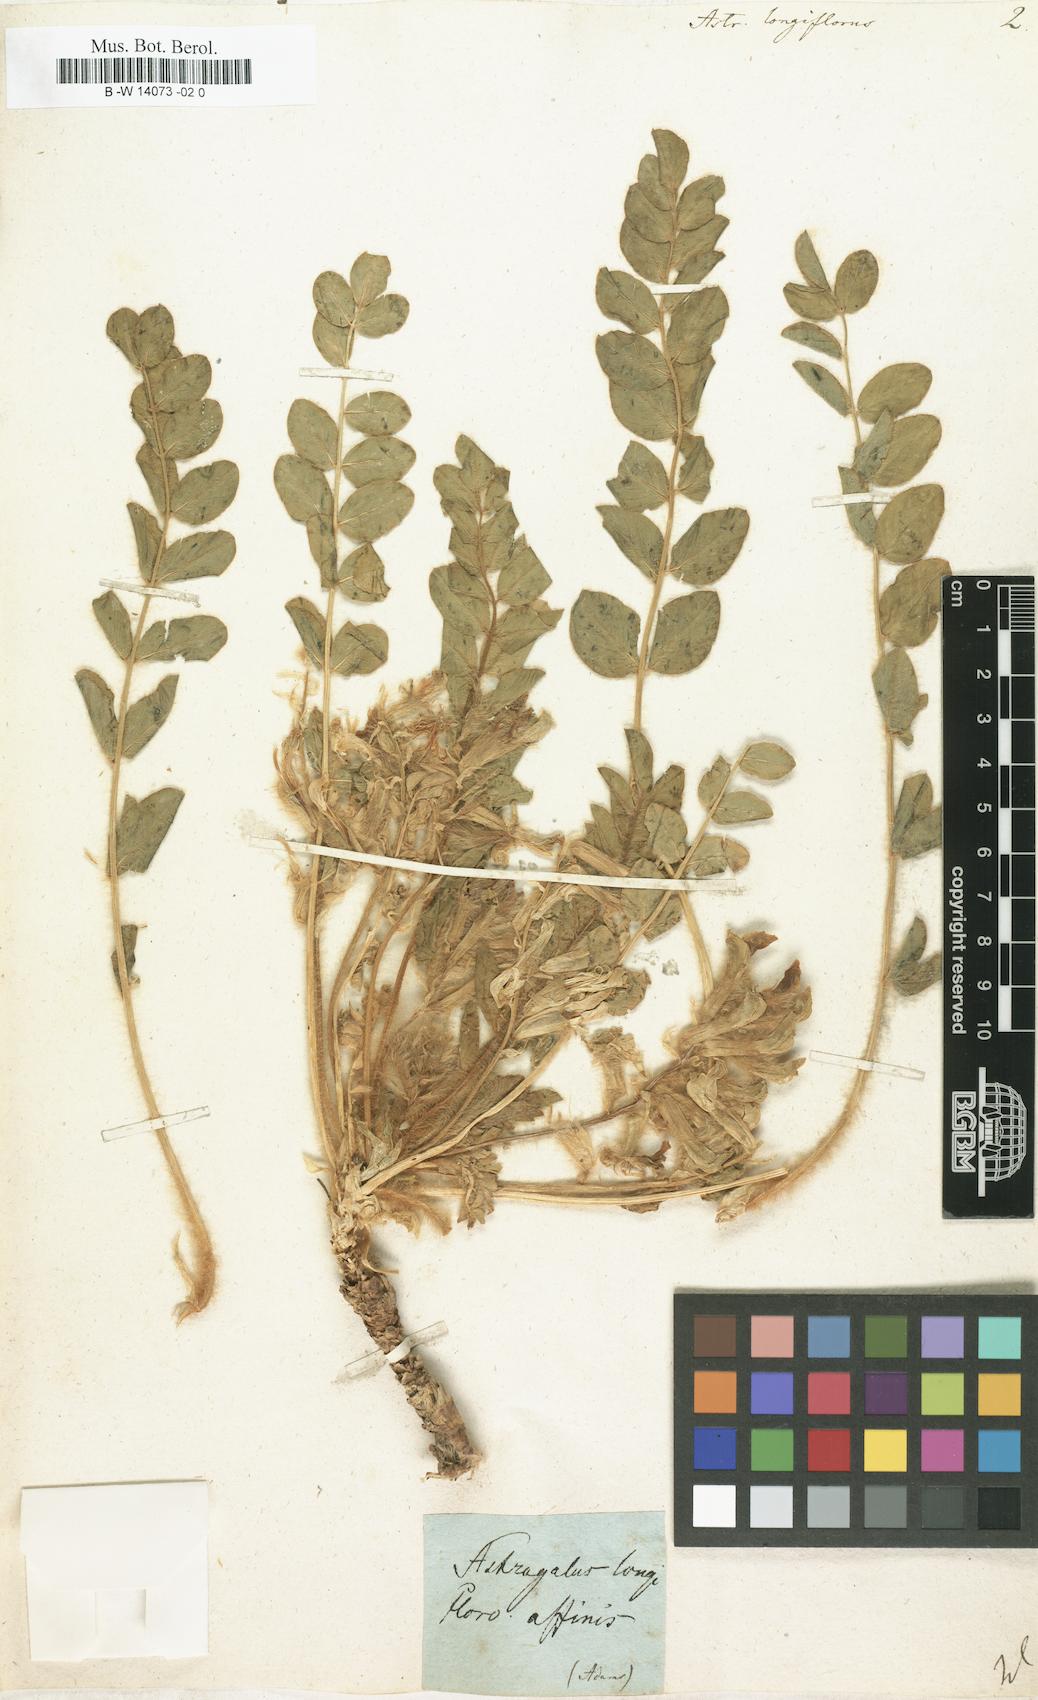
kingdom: Plantae
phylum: Tracheophyta
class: Magnoliopsida
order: Fabales
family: Fabaceae
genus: Astragalus
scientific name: Astragalus testiculatus
